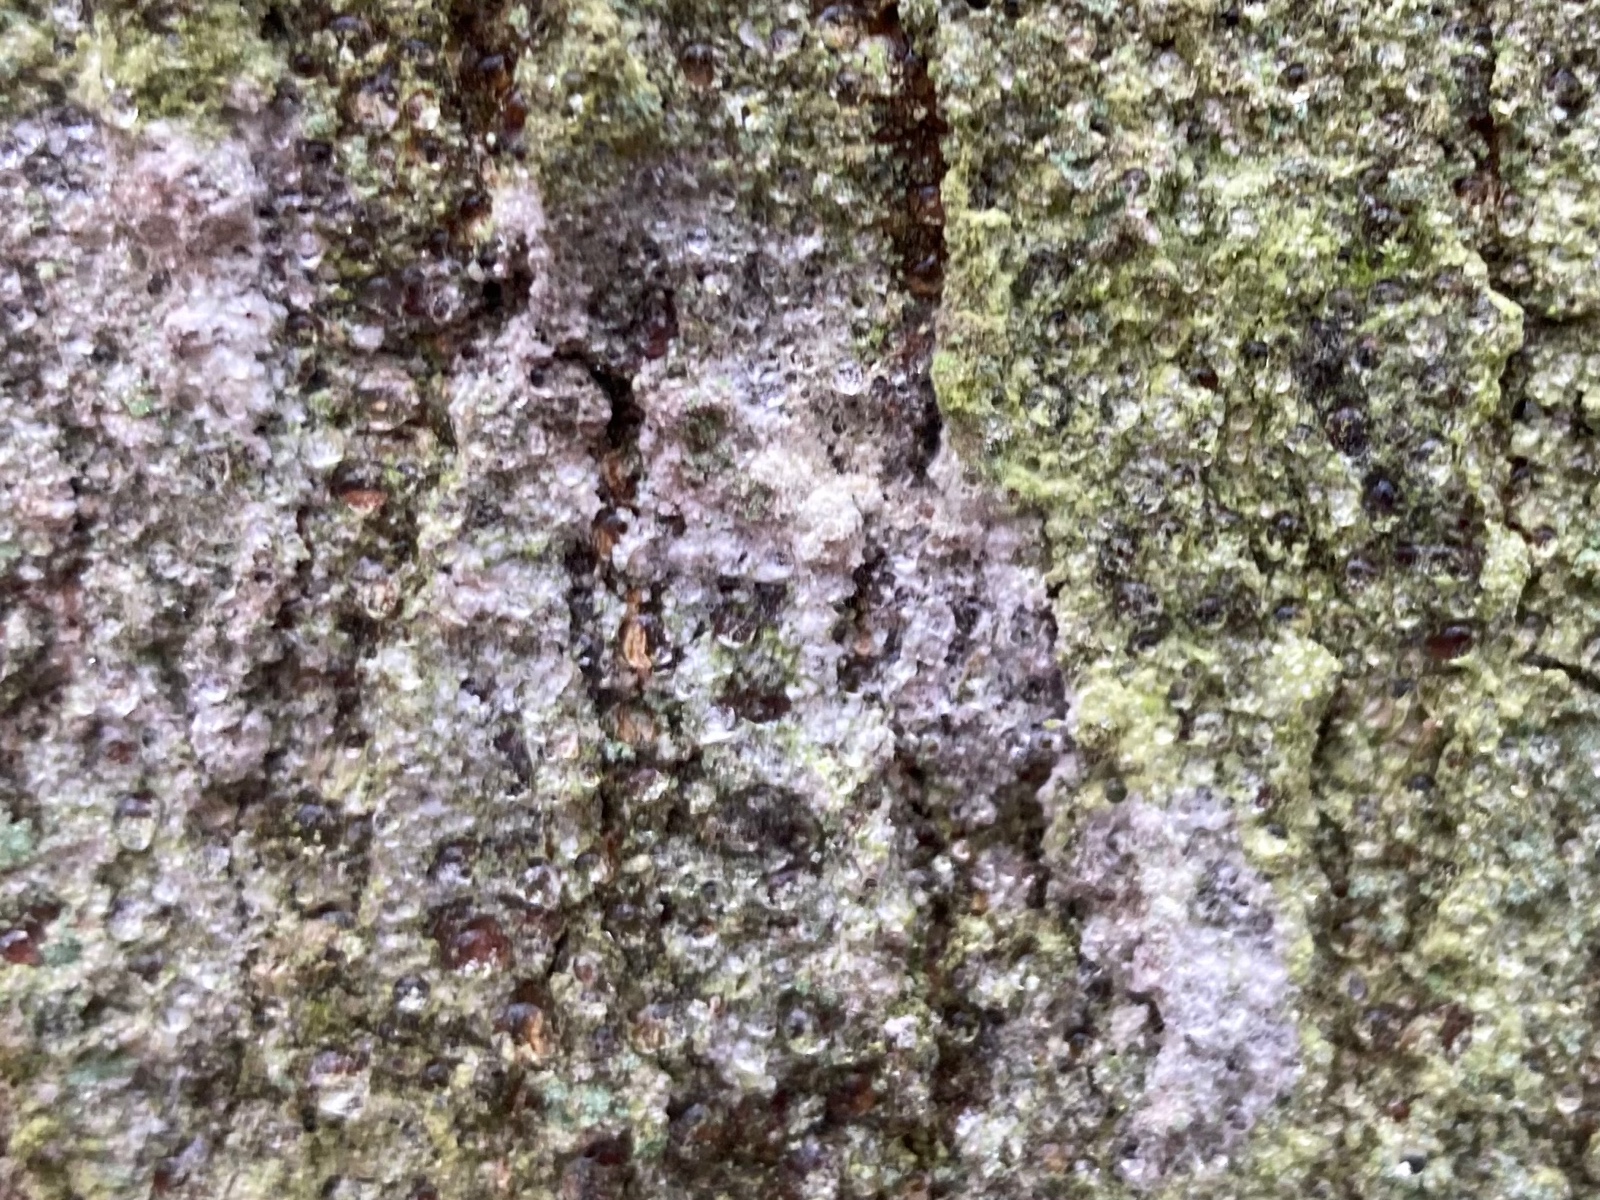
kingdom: Fungi
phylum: Basidiomycota
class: Agaricomycetes
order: Atheliales
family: Atheliaceae
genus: Athelia
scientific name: Athelia arachnoidea
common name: randet barkhinde
